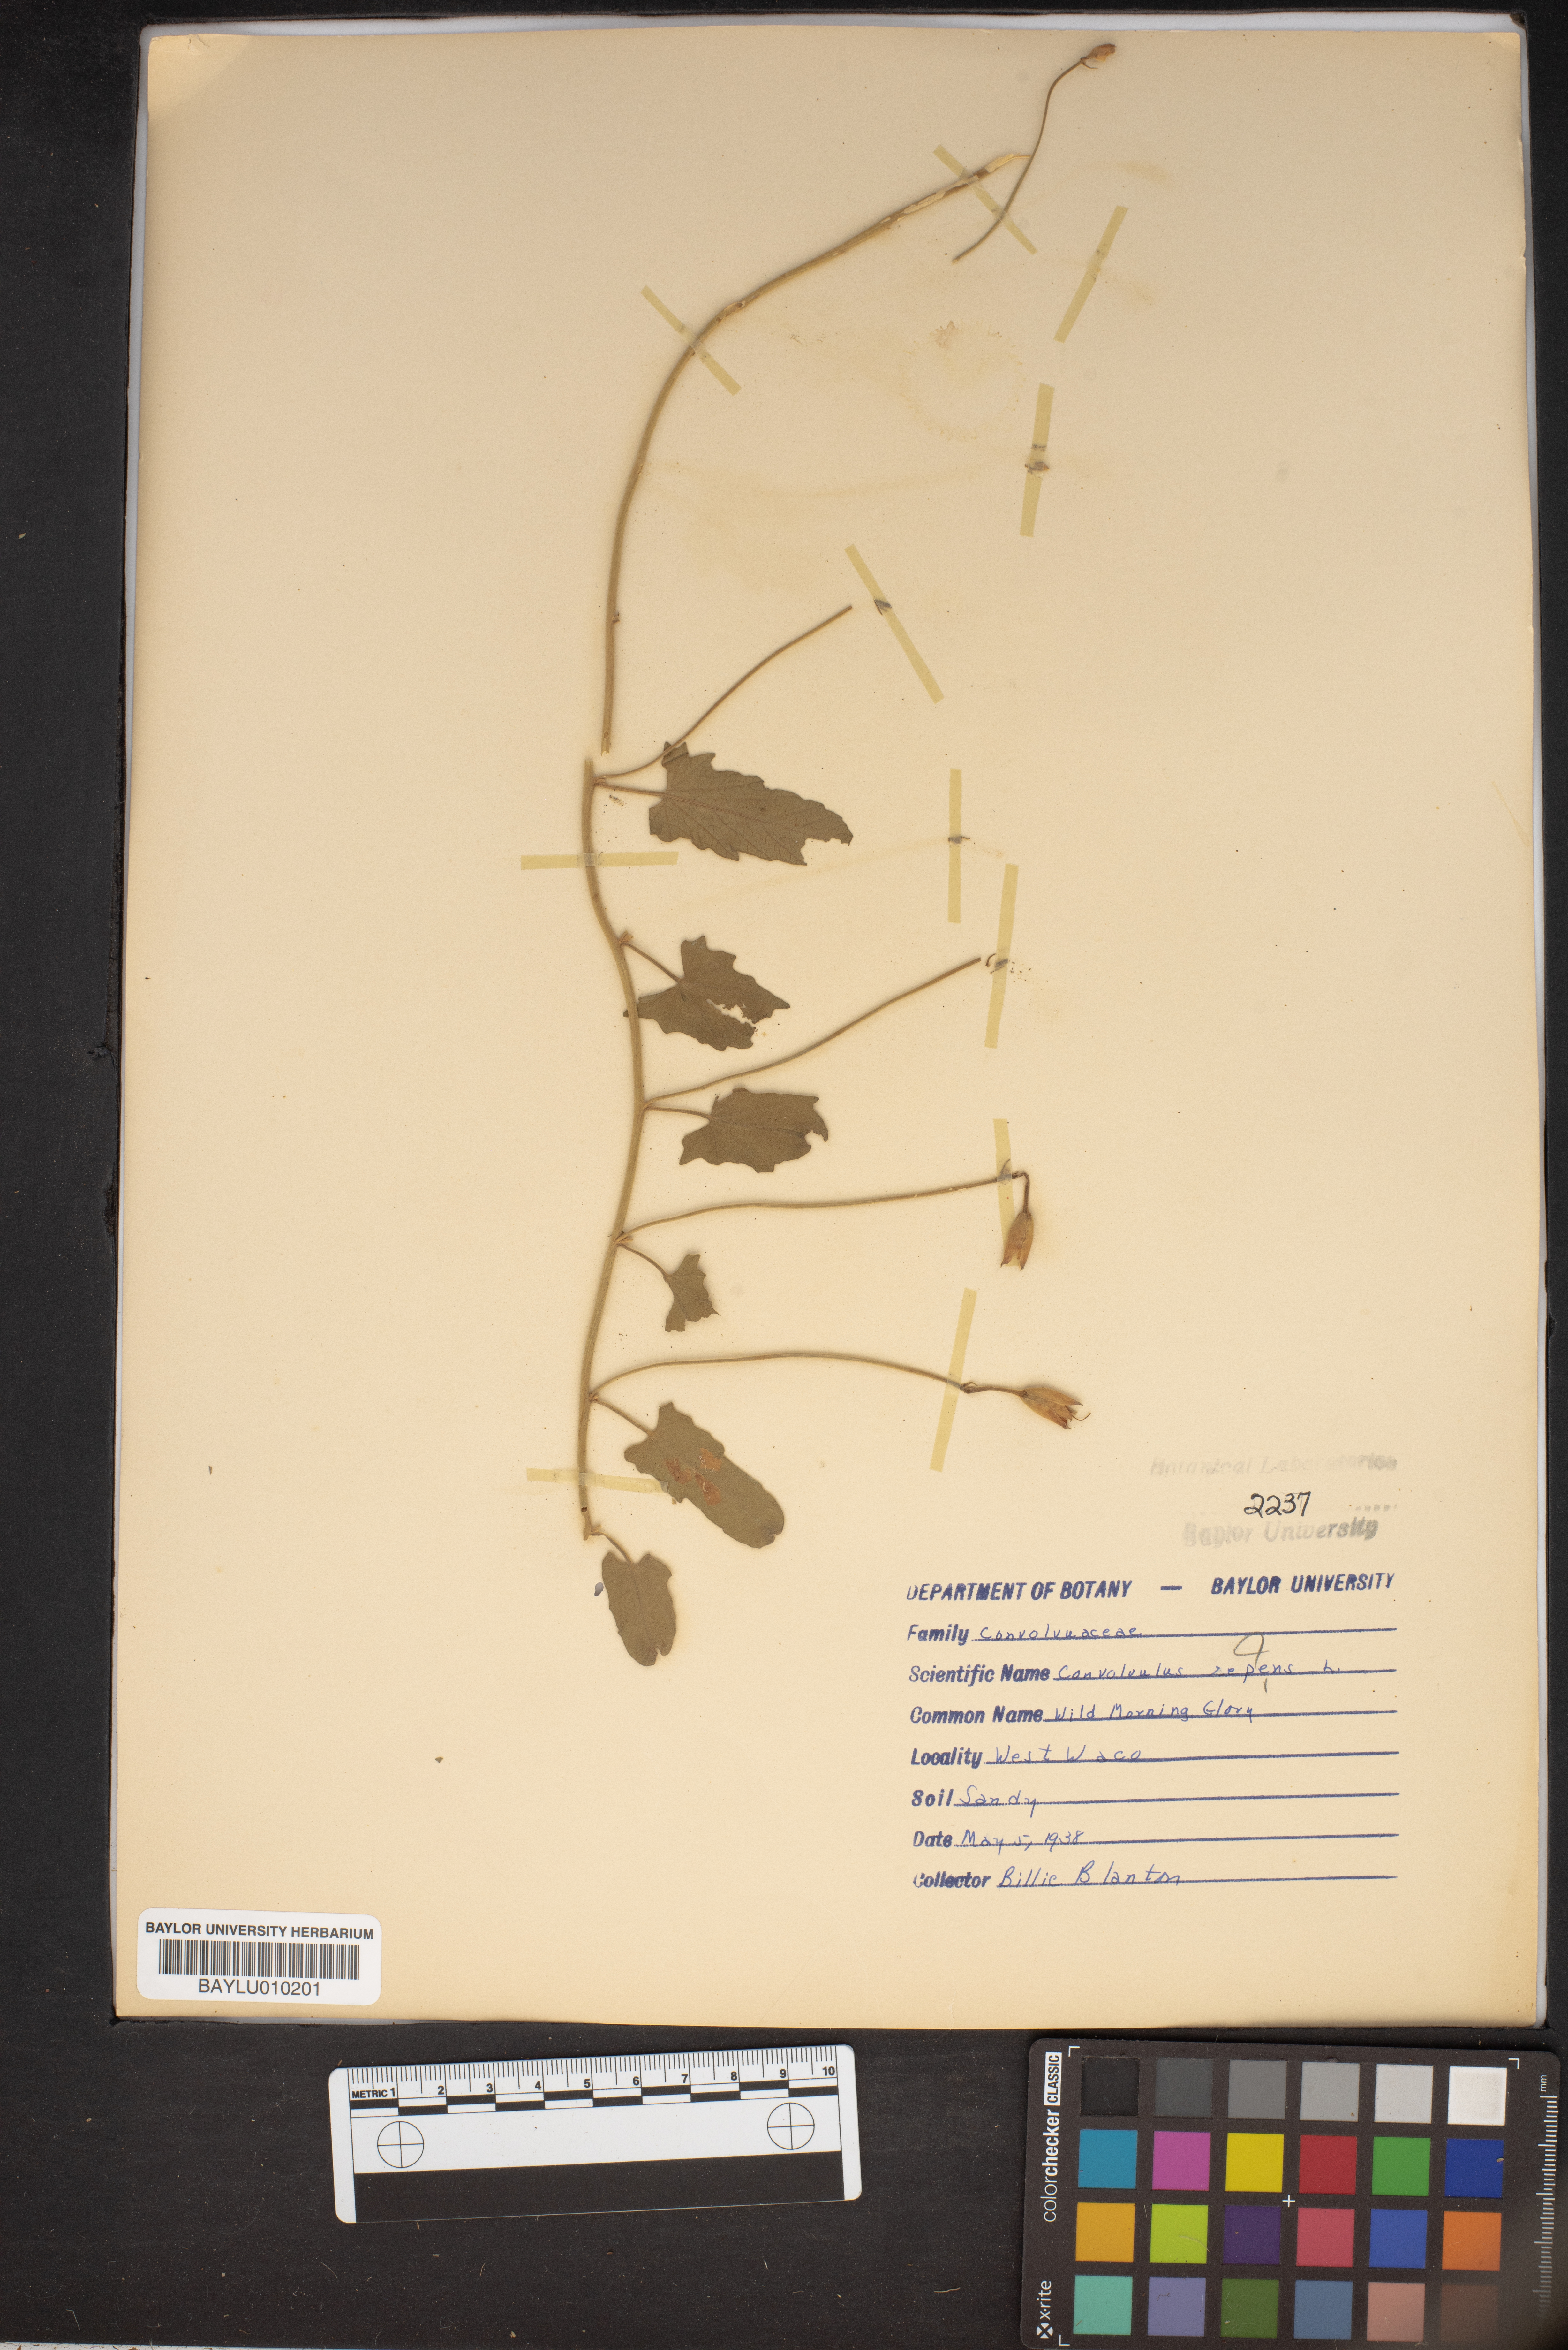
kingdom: Plantae
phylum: Tracheophyta
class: Magnoliopsida
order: Solanales
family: Convolvulaceae
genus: Calystegia
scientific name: Calystegia sepium
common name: Hedge bindweed
